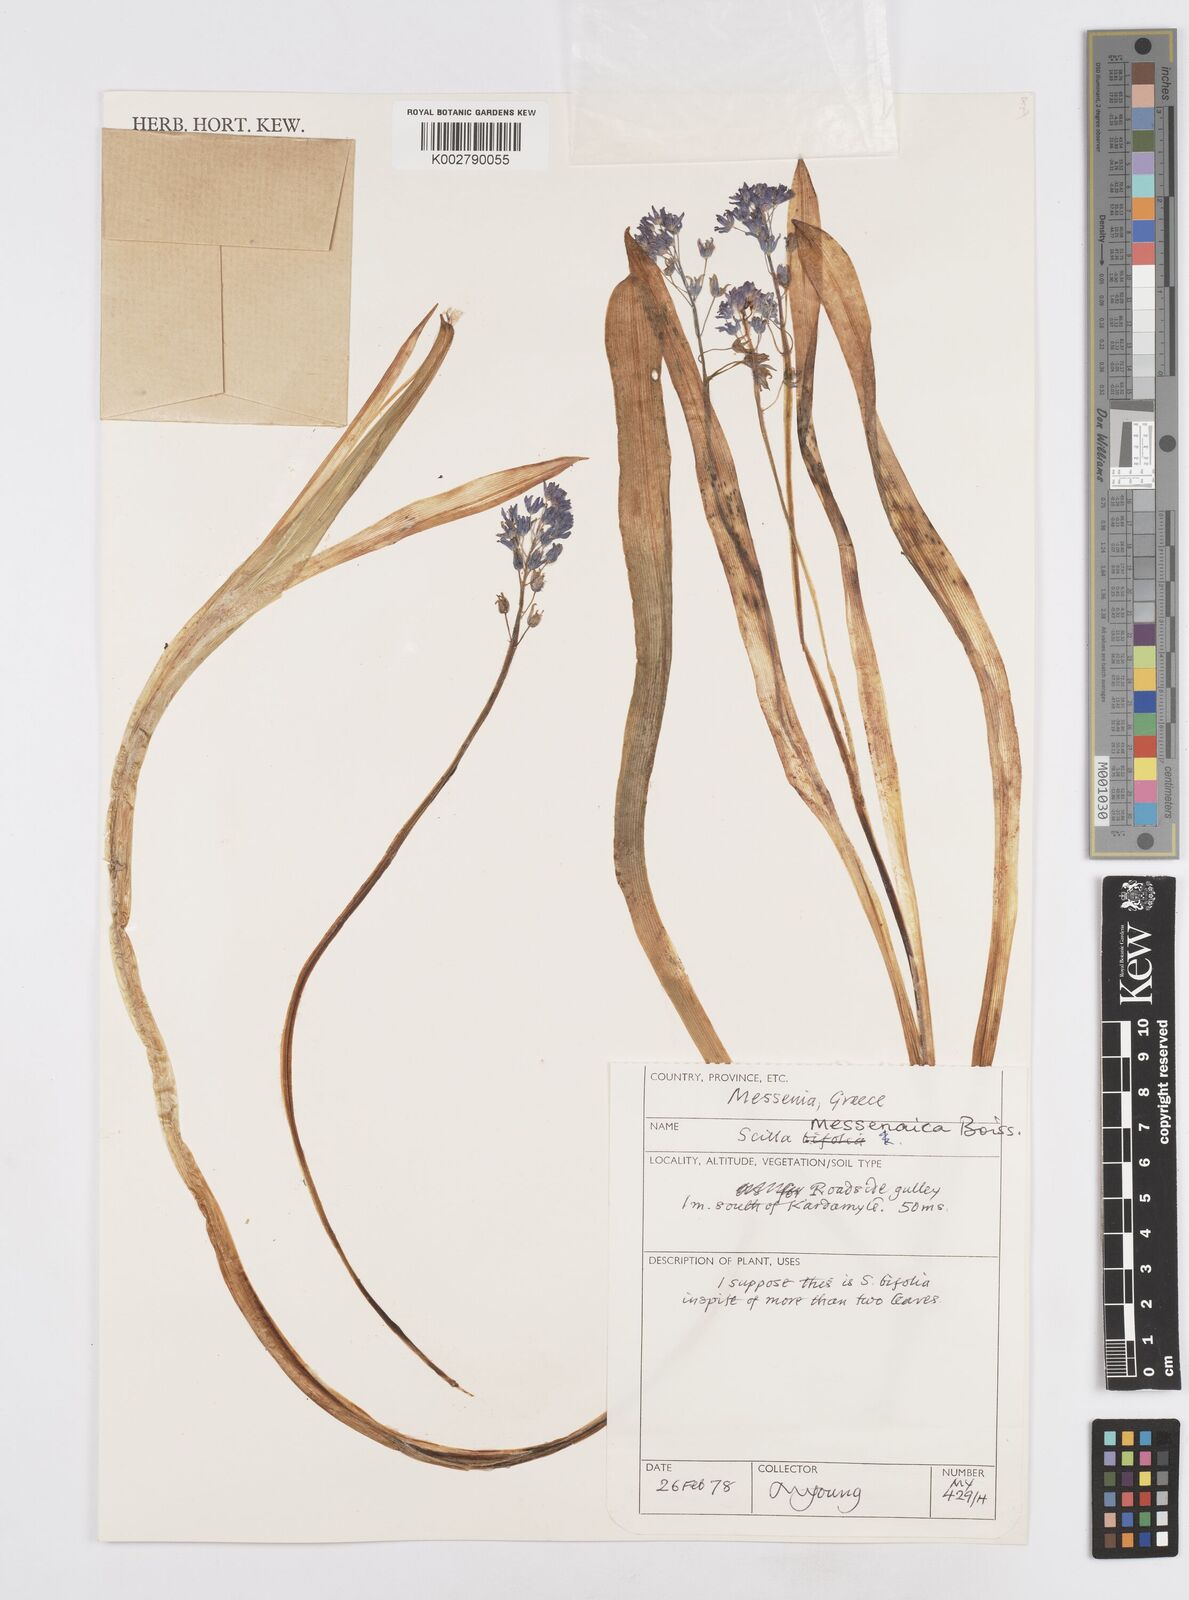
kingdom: Plantae
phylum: Tracheophyta
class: Liliopsida
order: Asparagales
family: Asparagaceae
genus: Scilla
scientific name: Scilla messeniaca
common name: Greek squill
